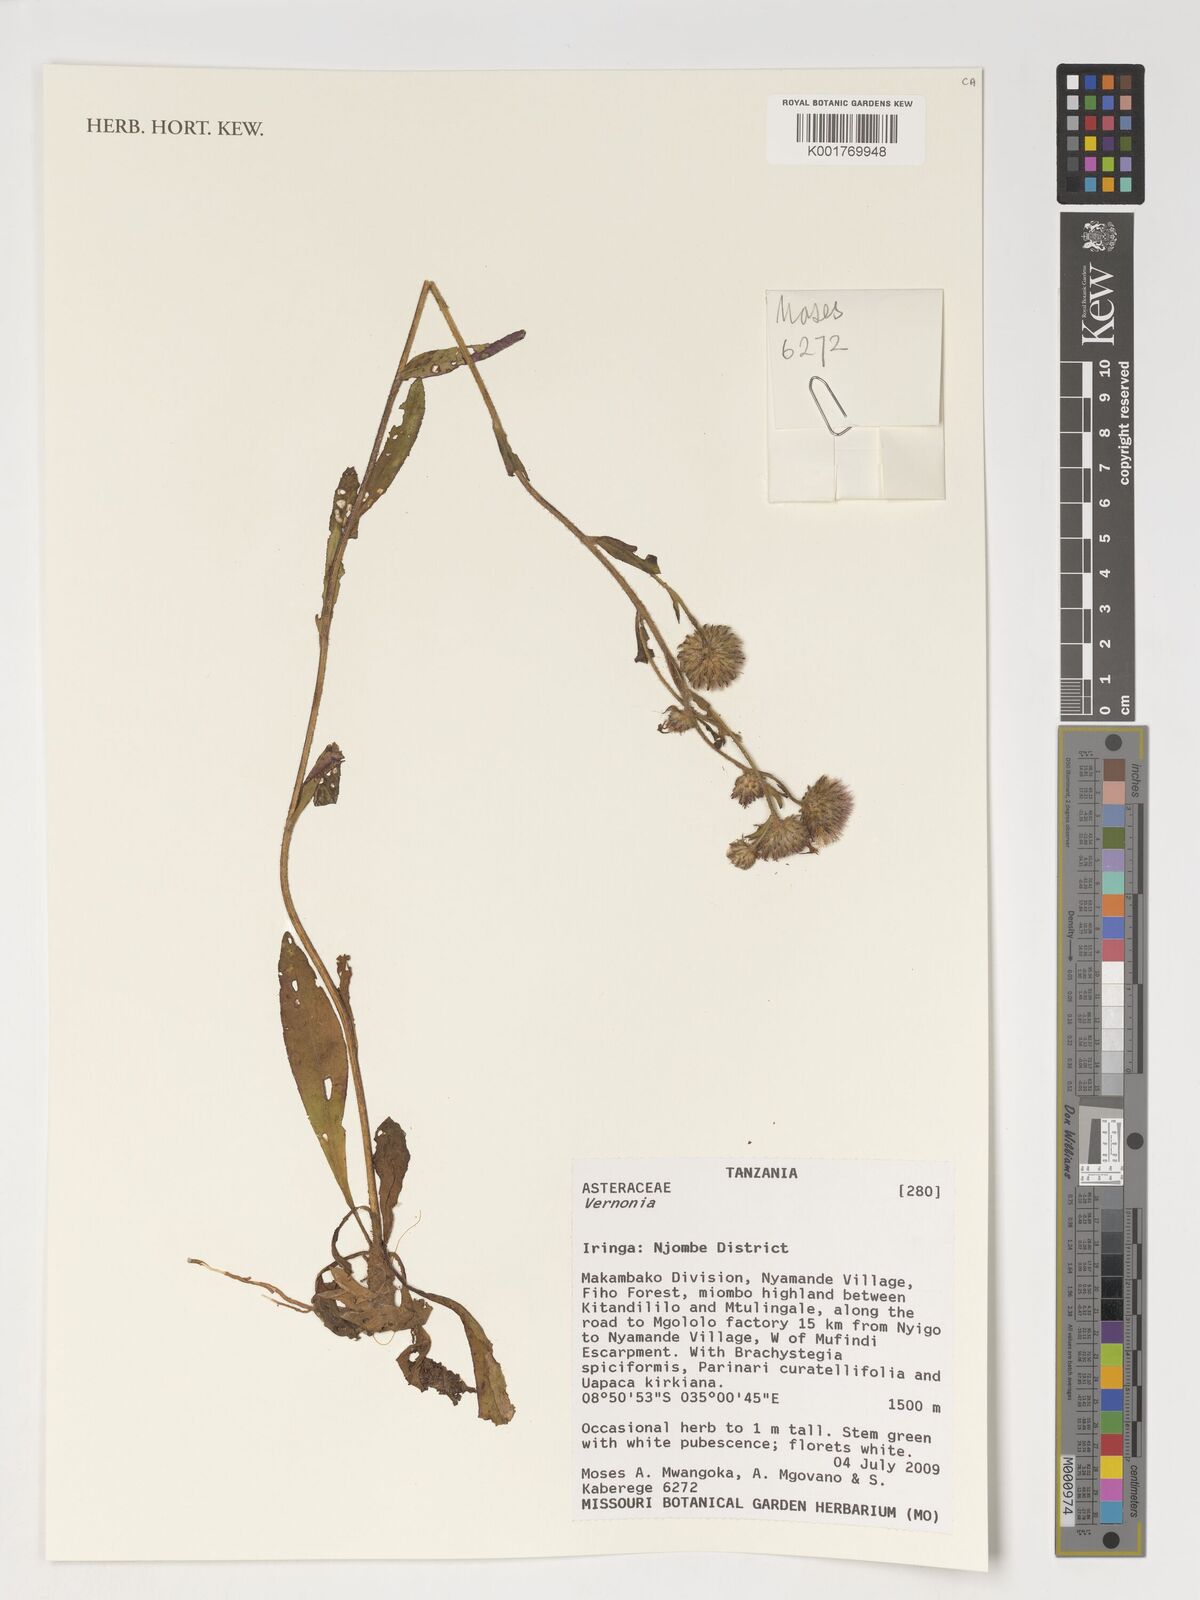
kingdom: Plantae
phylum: Tracheophyta
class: Magnoliopsida
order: Asterales
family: Asteraceae
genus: Vernonia
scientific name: Vernonia
